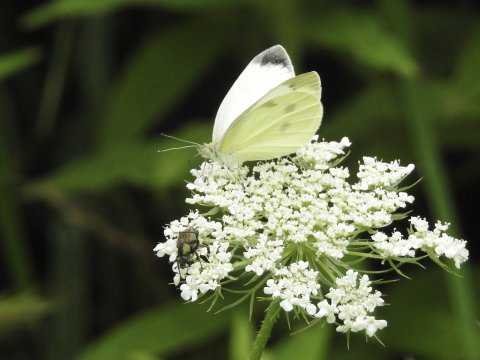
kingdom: Animalia
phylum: Arthropoda
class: Insecta
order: Lepidoptera
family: Pieridae
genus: Pieris
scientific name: Pieris rapae
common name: Cabbage White
